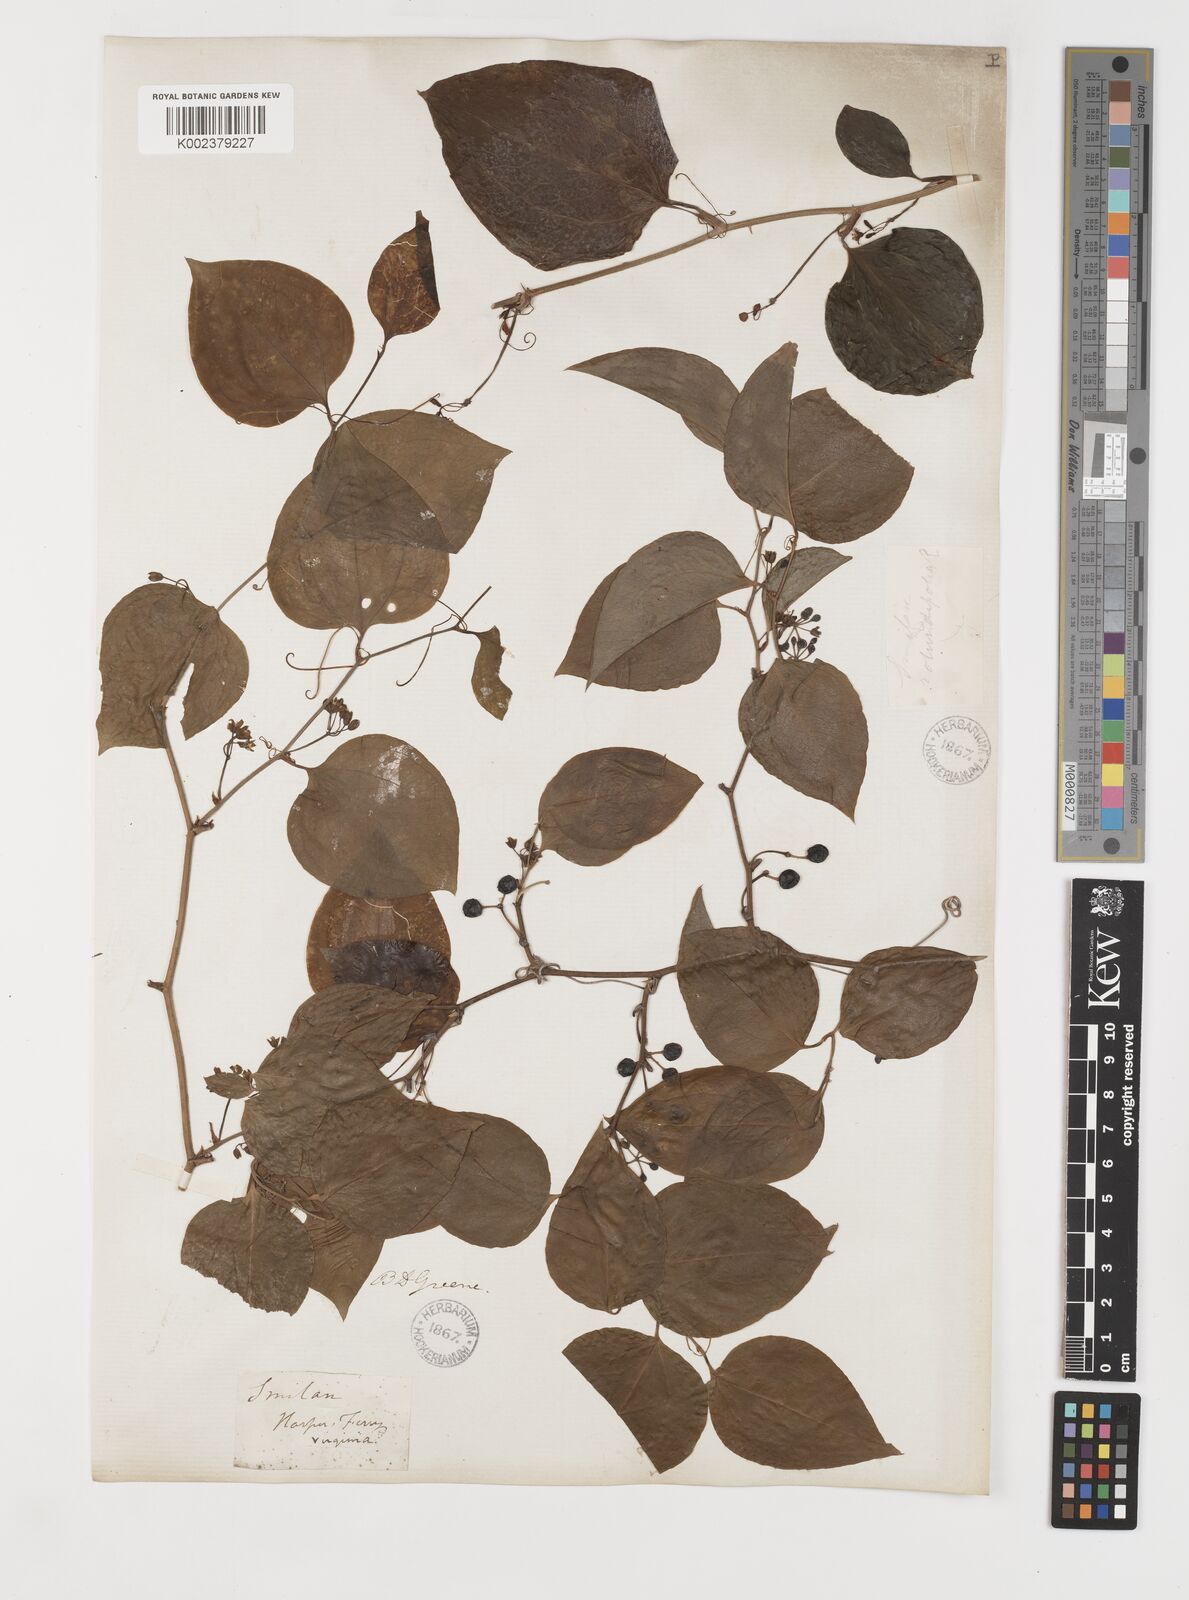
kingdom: Plantae
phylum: Tracheophyta
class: Liliopsida
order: Liliales
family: Smilacaceae
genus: Smilax
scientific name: Smilax rotundifolia
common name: Bullbriar
